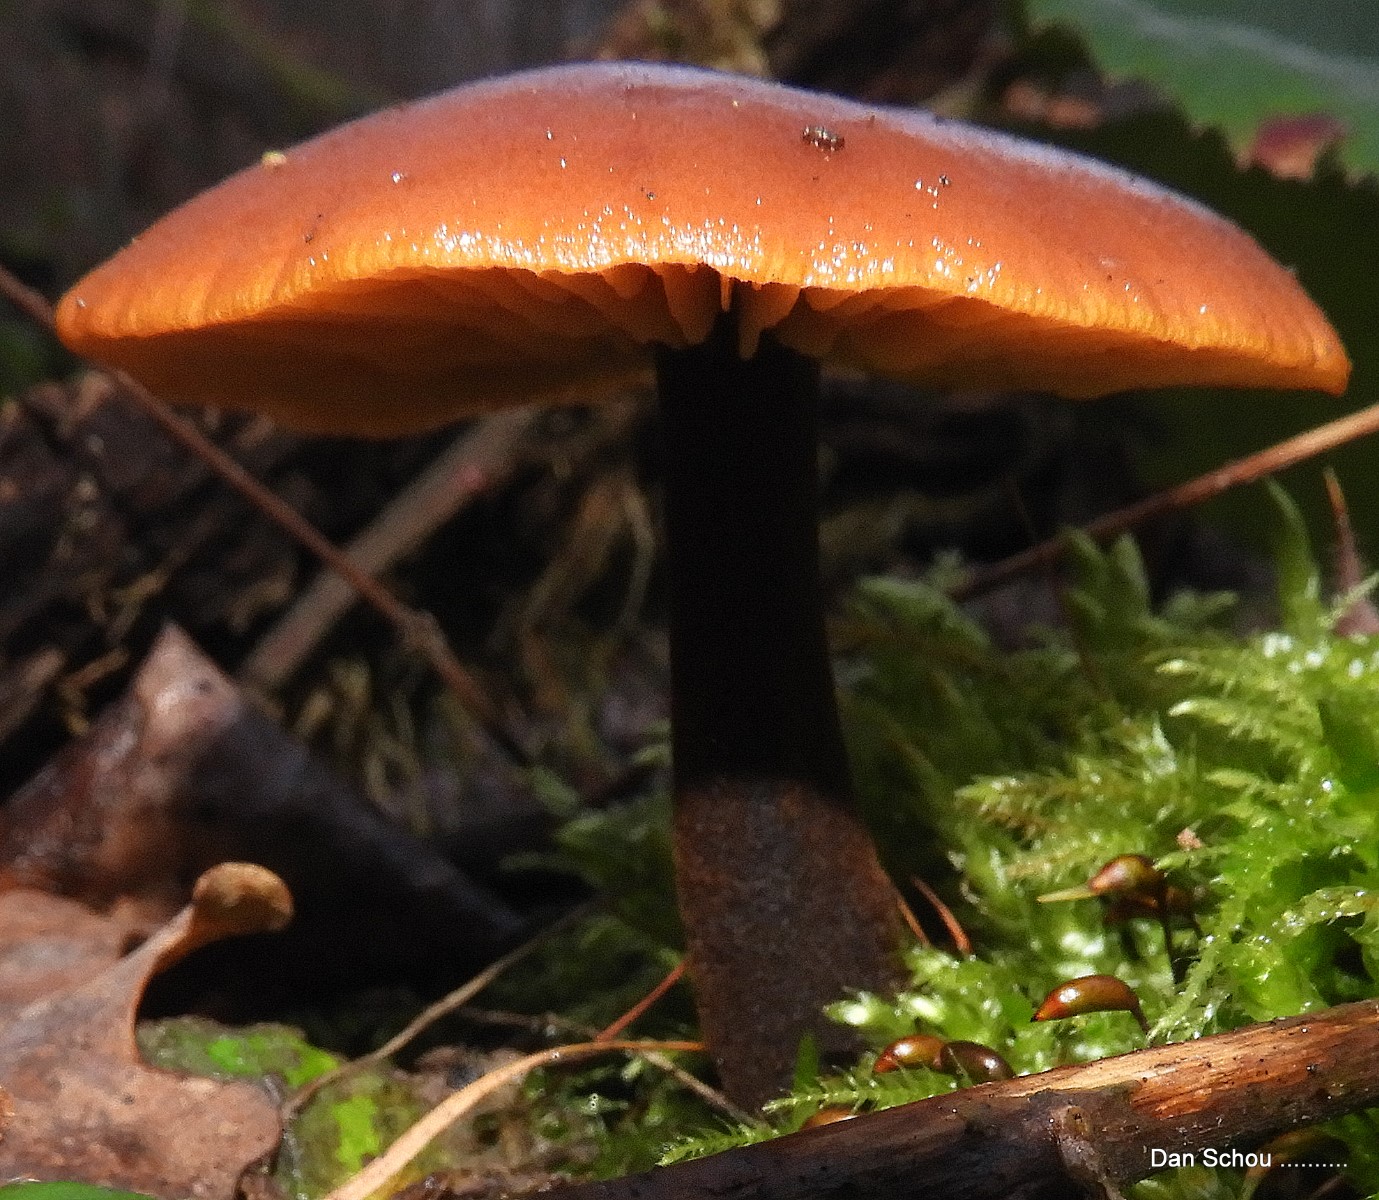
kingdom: Fungi
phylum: Basidiomycota
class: Agaricomycetes
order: Agaricales
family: Physalacriaceae
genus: Flammulina
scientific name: Flammulina
